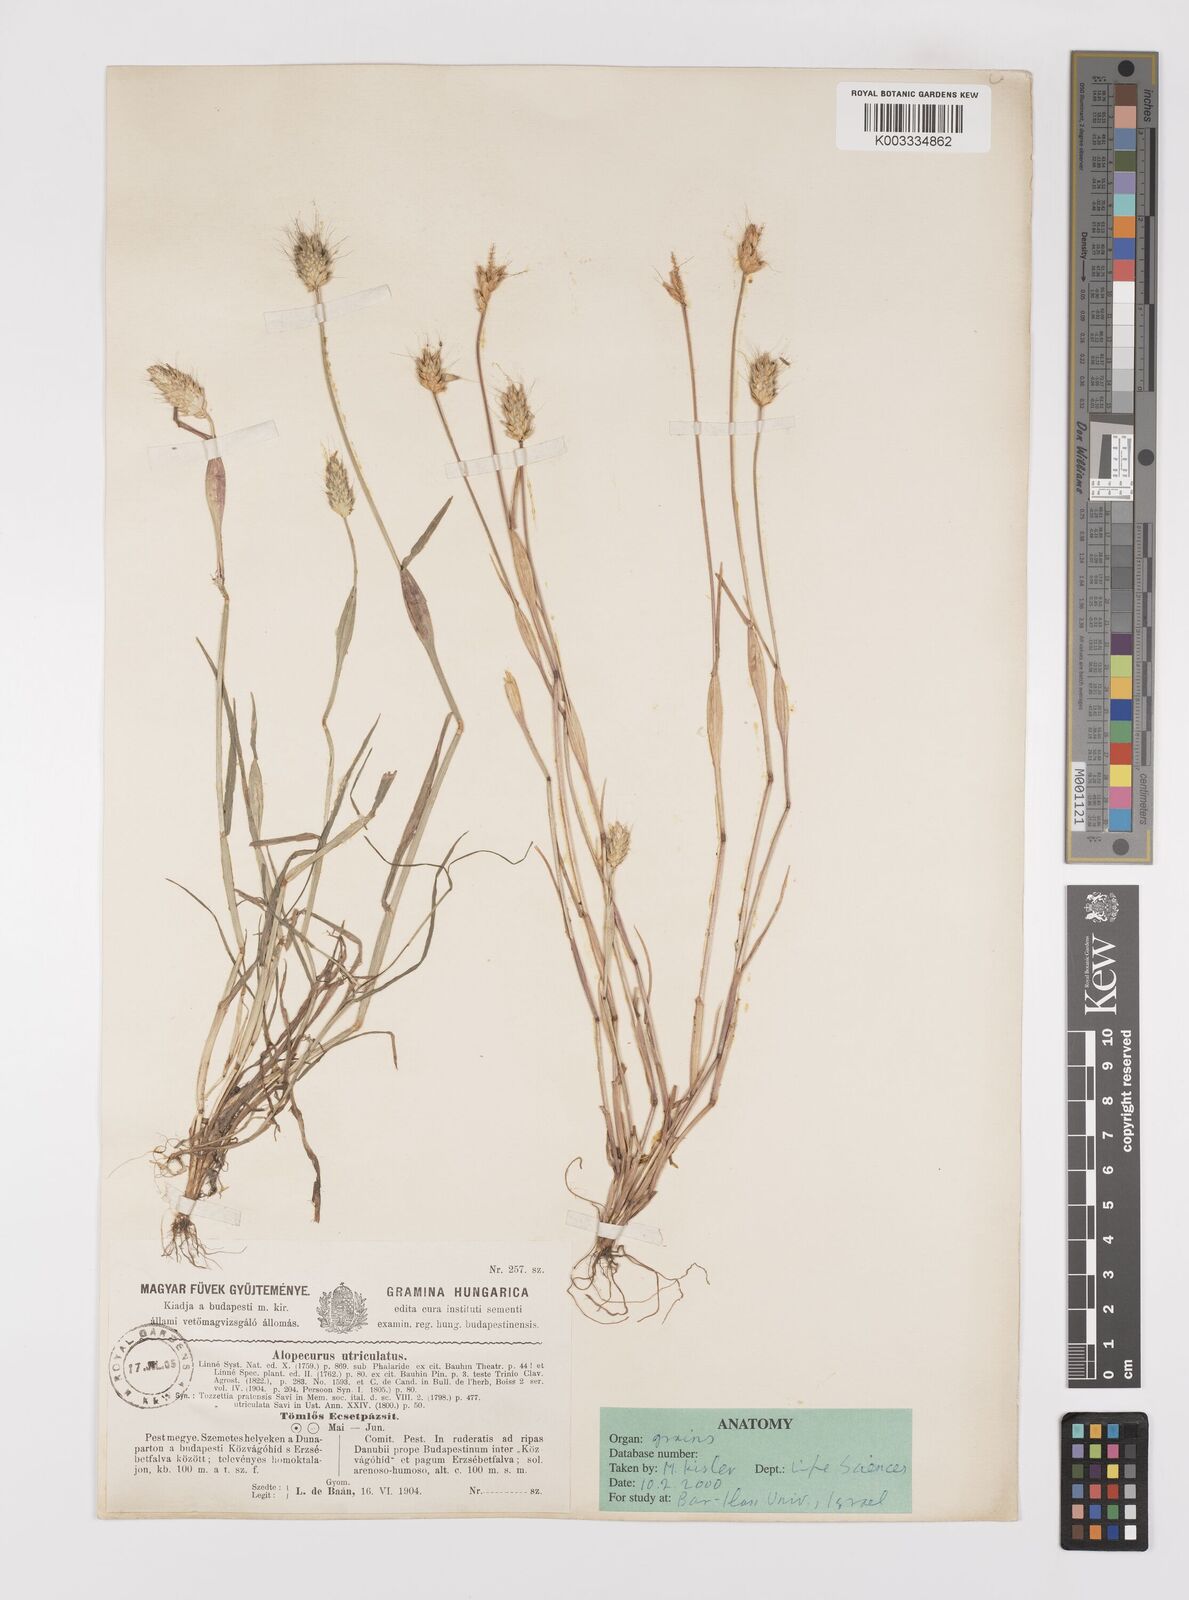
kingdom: Plantae
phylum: Tracheophyta
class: Liliopsida
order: Poales
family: Poaceae
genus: Alopecurus
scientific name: Alopecurus rendlei
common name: Rendle's meadow foxtail
